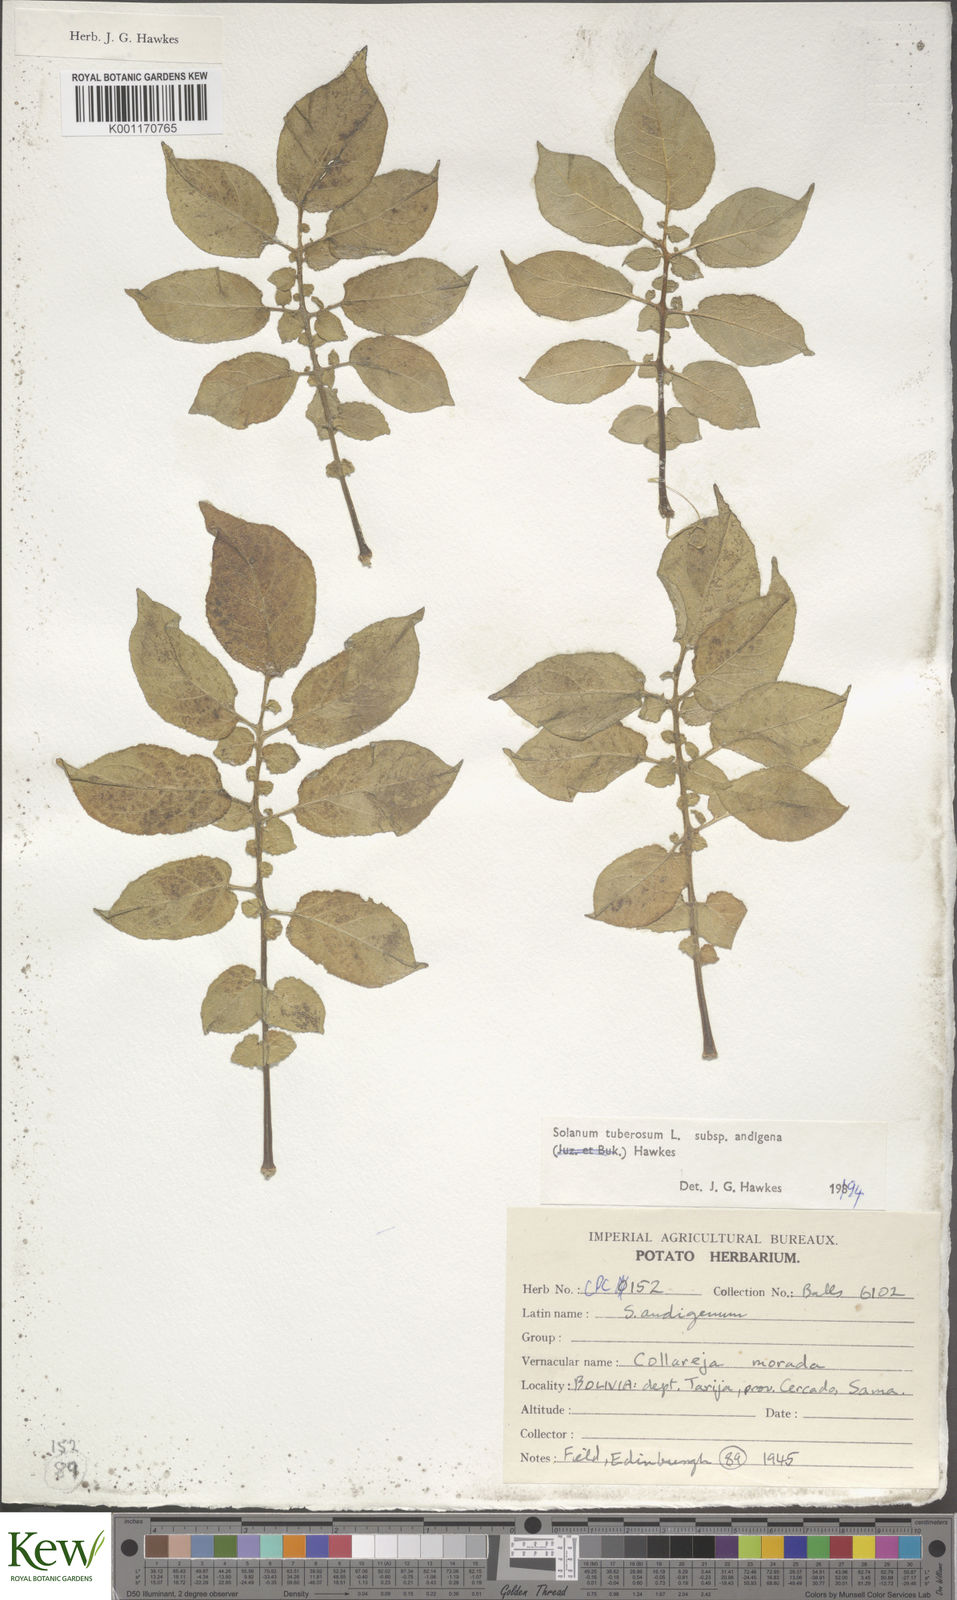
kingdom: Plantae
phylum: Tracheophyta
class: Magnoliopsida
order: Solanales
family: Solanaceae
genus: Solanum
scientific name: Solanum tuberosum
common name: Potato
